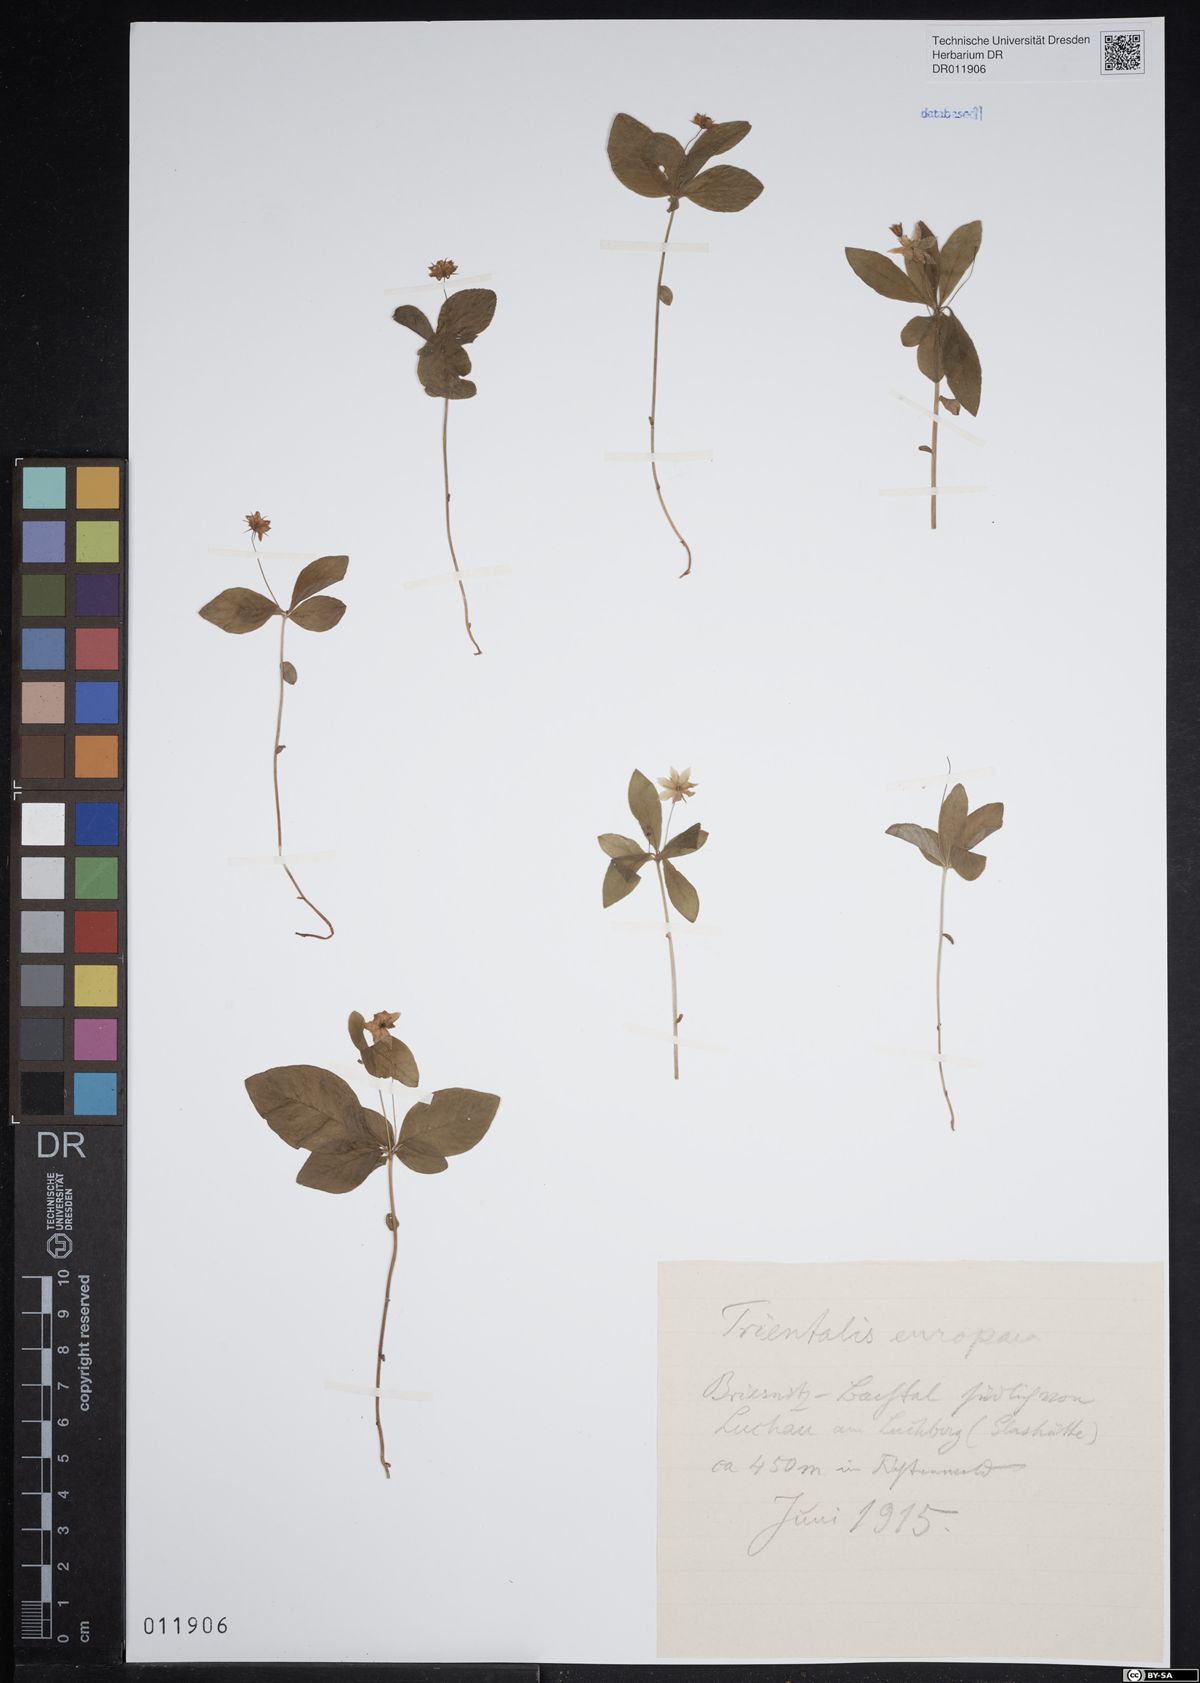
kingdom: Plantae
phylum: Tracheophyta
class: Magnoliopsida
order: Ericales
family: Primulaceae
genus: Lysimachia
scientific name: Lysimachia europaea
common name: Arctic starflower
